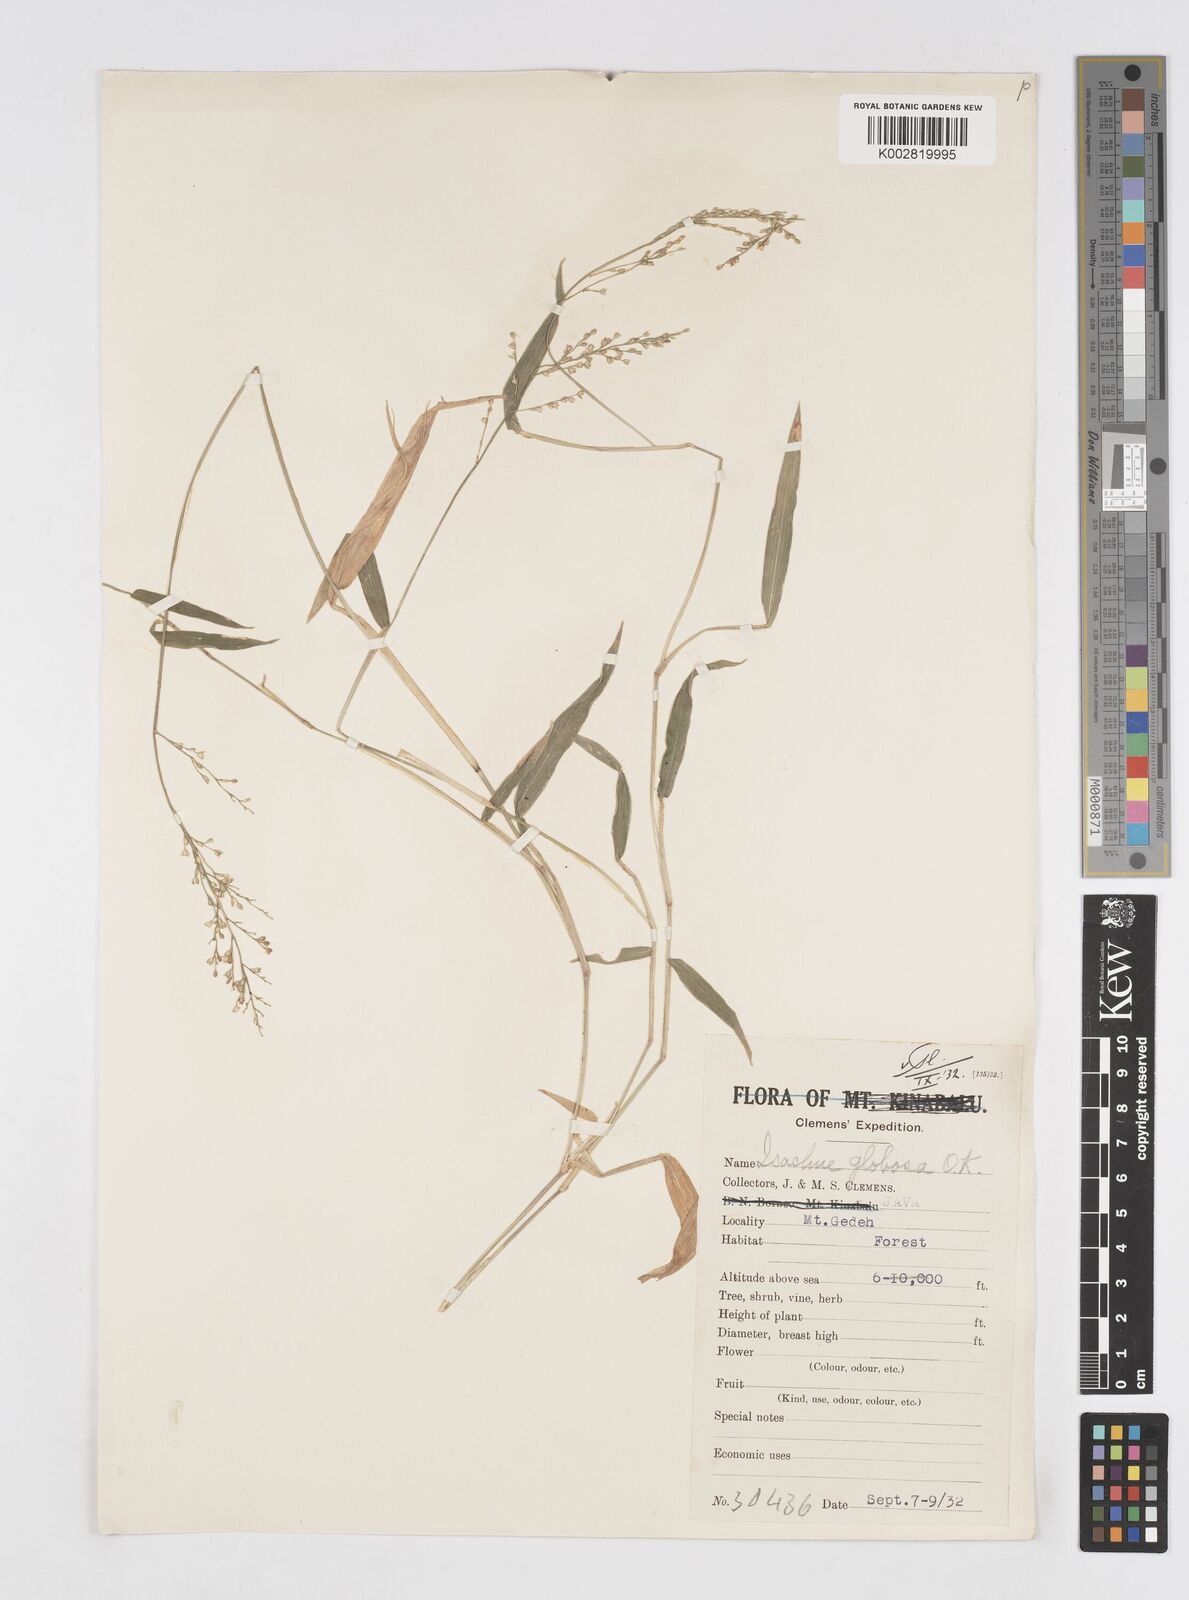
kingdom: Plantae
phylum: Tracheophyta
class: Liliopsida
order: Poales
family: Poaceae
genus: Isachne
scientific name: Isachne globosa
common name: Swamp millet
